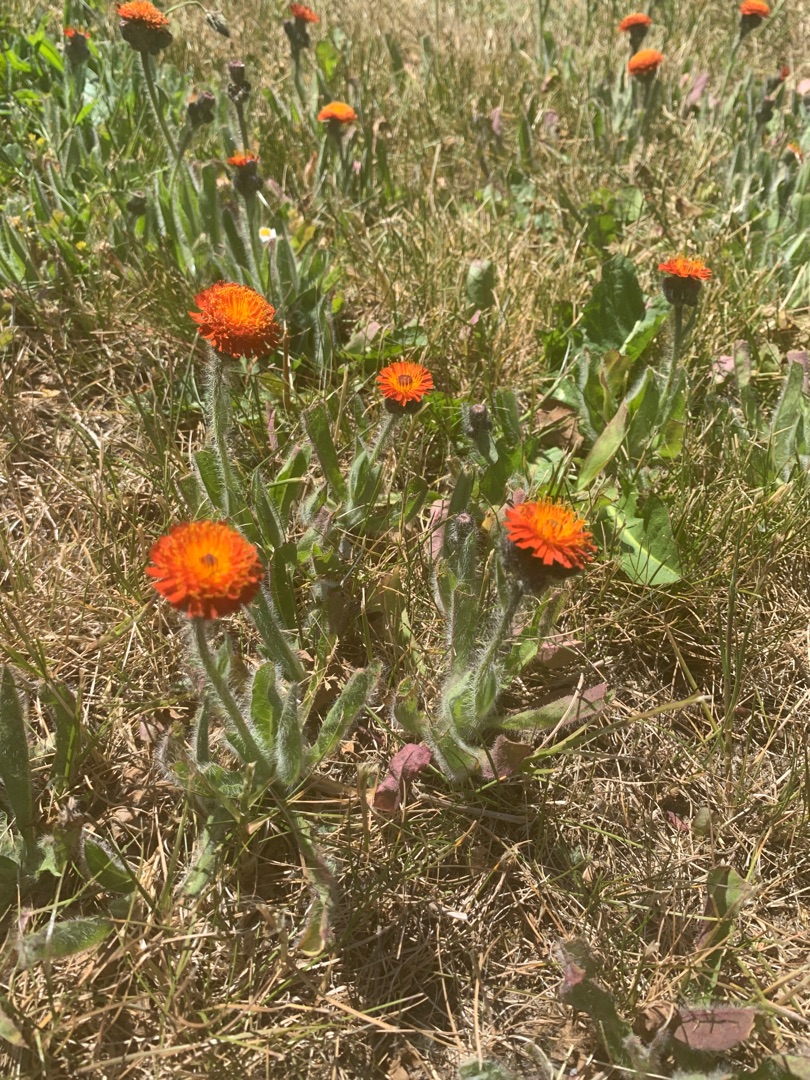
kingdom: Plantae
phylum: Tracheophyta
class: Magnoliopsida
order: Asterales
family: Asteraceae
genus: Pilosella
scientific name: Pilosella aurantiaca
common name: Pomerans-høgeurt
